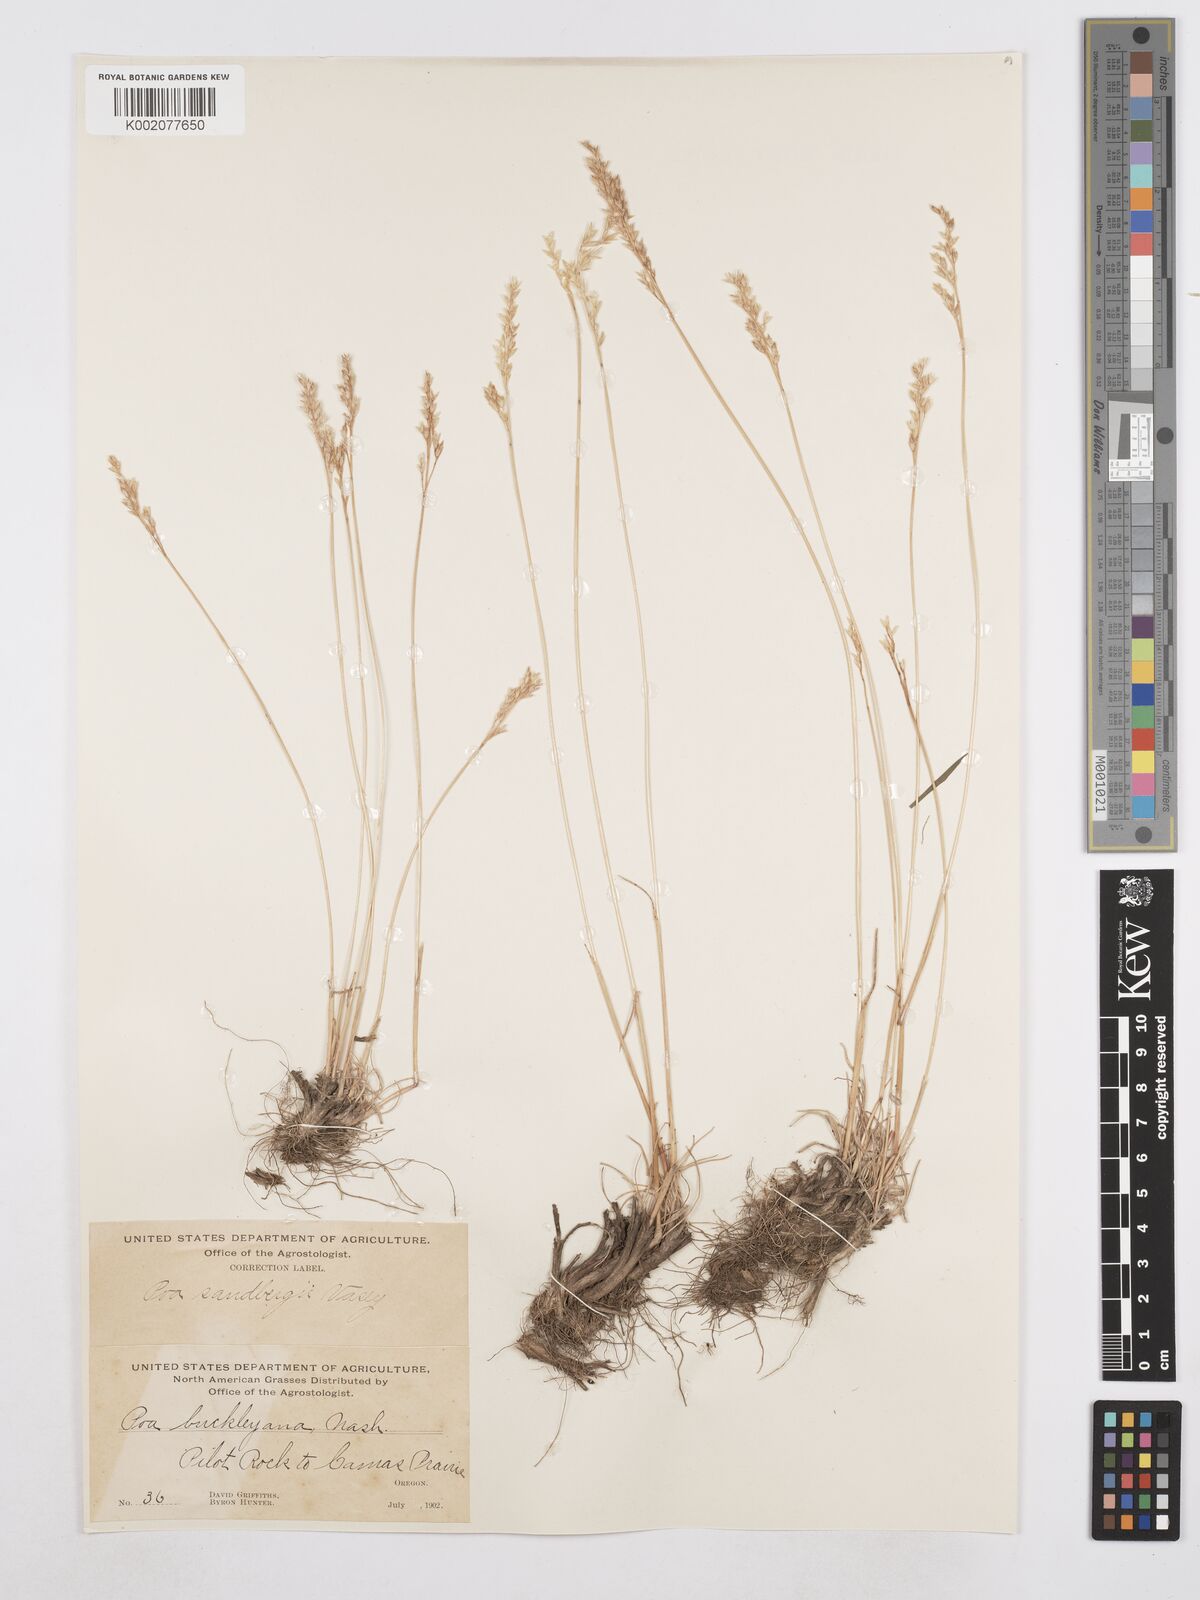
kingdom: Plantae
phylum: Tracheophyta
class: Liliopsida
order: Poales
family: Poaceae
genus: Poa
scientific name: Poa secunda
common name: Sandberg bluegrass
